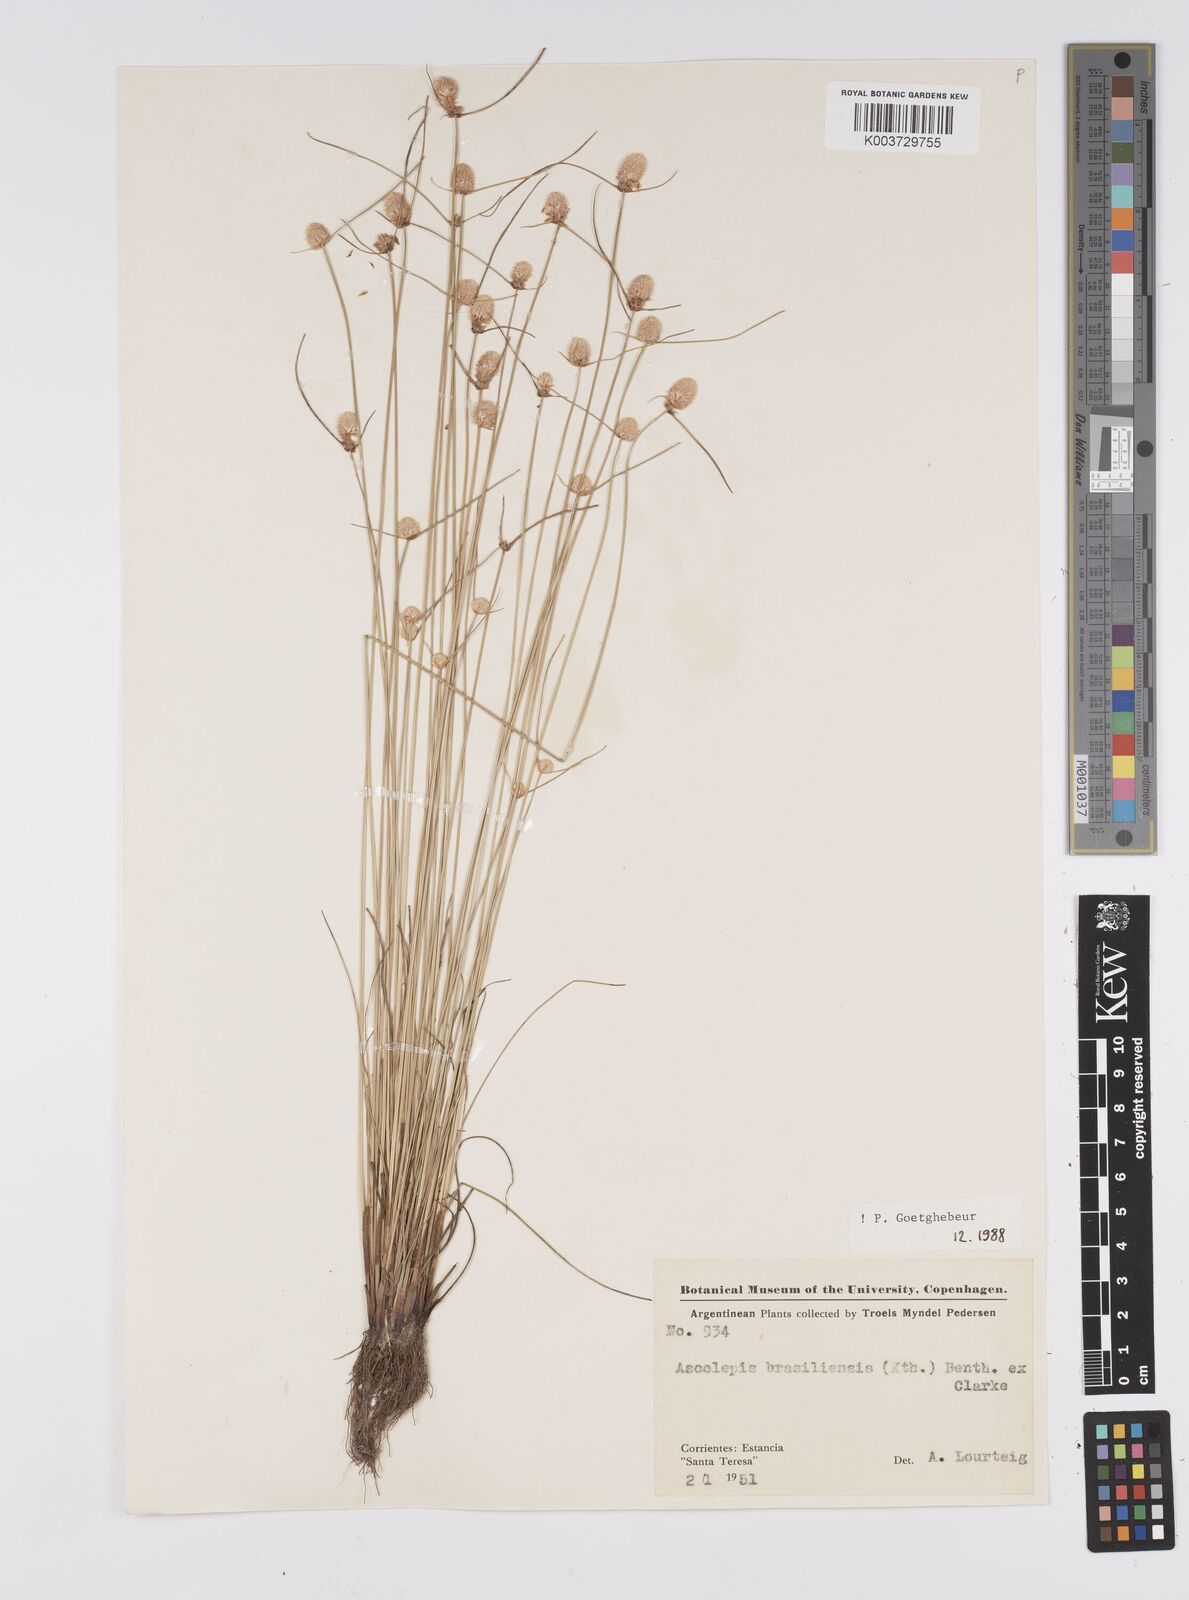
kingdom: Plantae
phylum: Tracheophyta
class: Liliopsida
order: Poales
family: Cyperaceae
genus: Cyperus
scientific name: Cyperus brasiliensis
